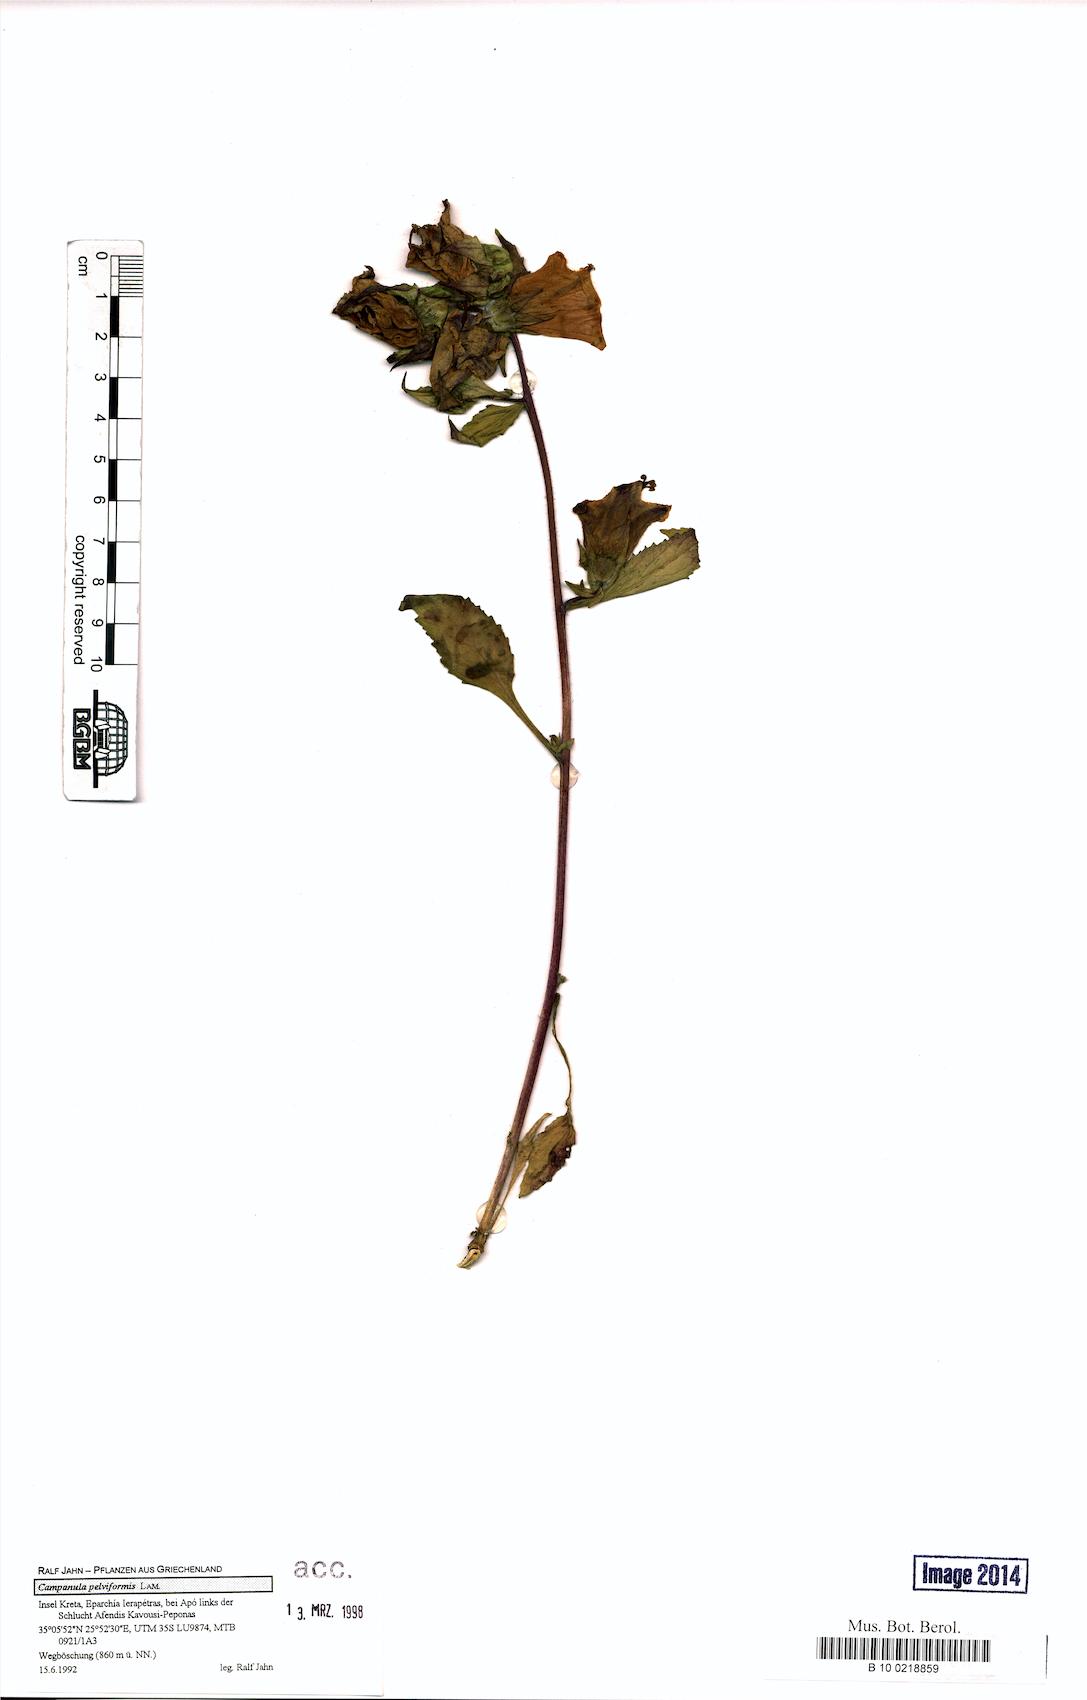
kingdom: Plantae
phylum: Tracheophyta
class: Magnoliopsida
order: Asterales
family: Campanulaceae
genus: Campanula
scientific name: Campanula pelviformis
